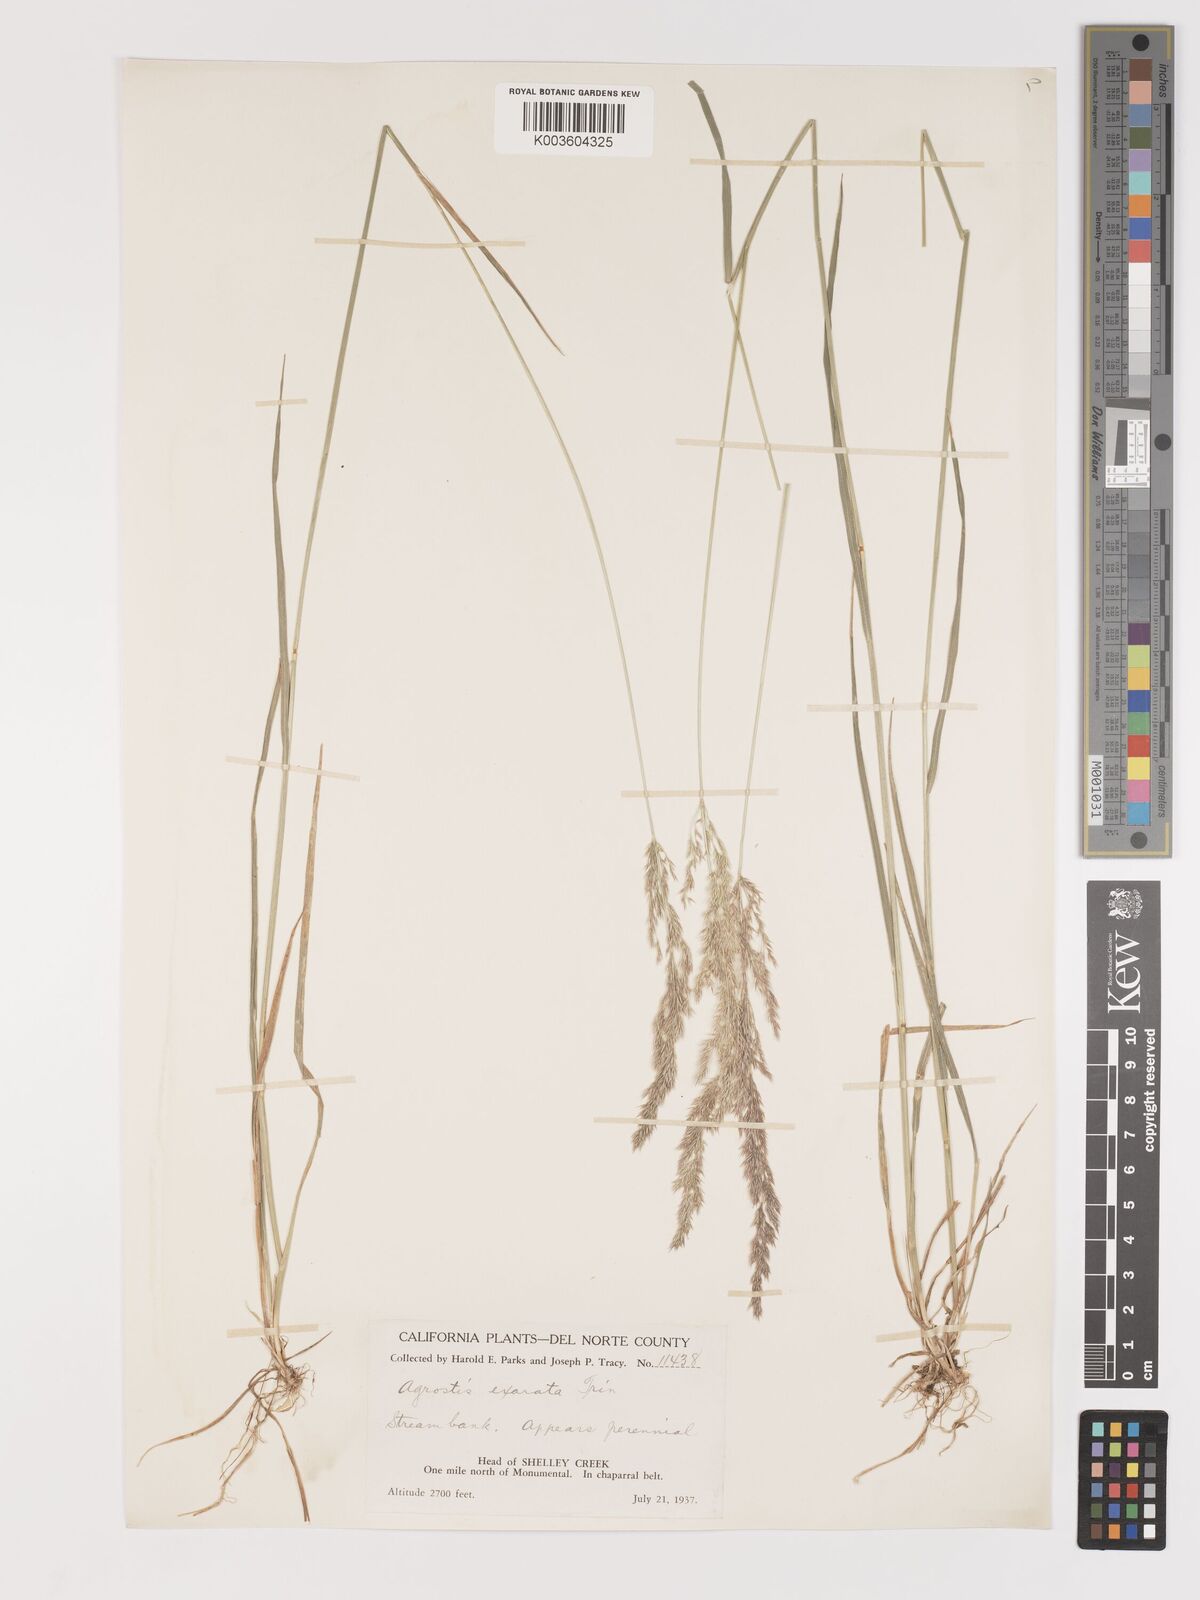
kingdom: Plantae
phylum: Tracheophyta
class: Liliopsida
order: Poales
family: Poaceae
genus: Agrostis
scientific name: Agrostis exarata
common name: Spike bent
